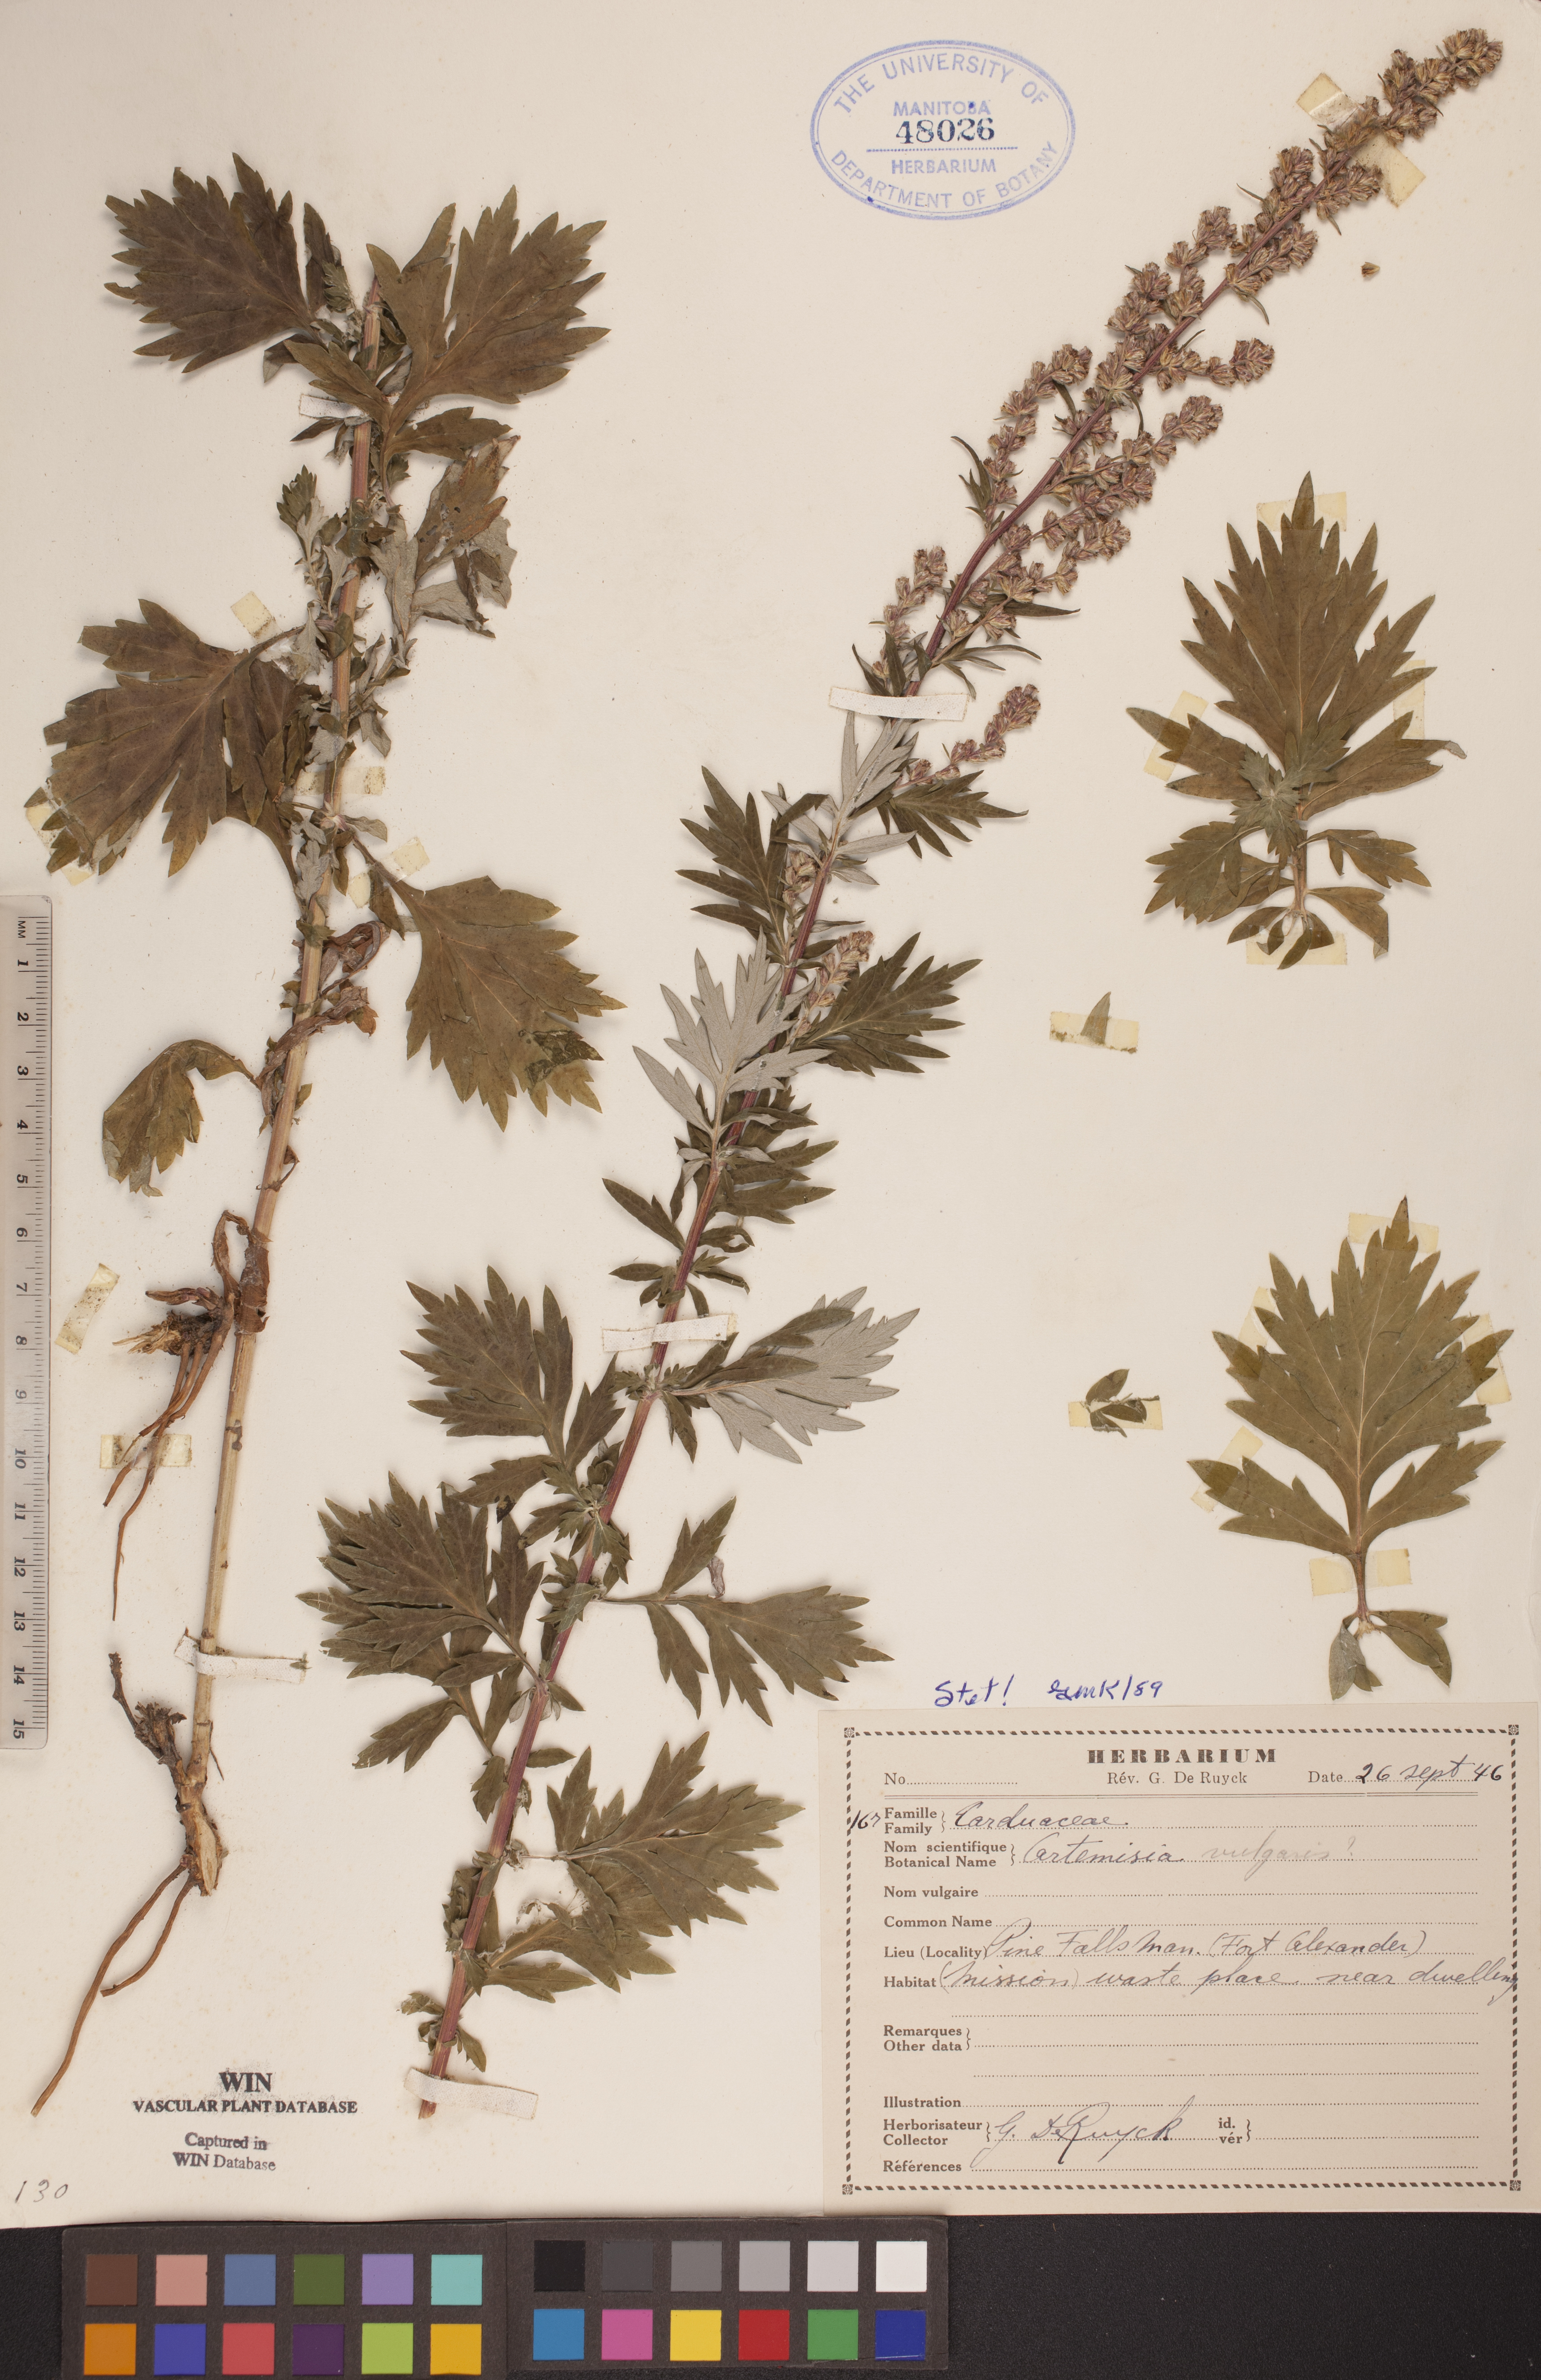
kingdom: Plantae
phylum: Tracheophyta
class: Magnoliopsida
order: Asterales
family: Asteraceae
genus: Artemisia
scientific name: Artemisia vulgaris
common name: Mugwort
